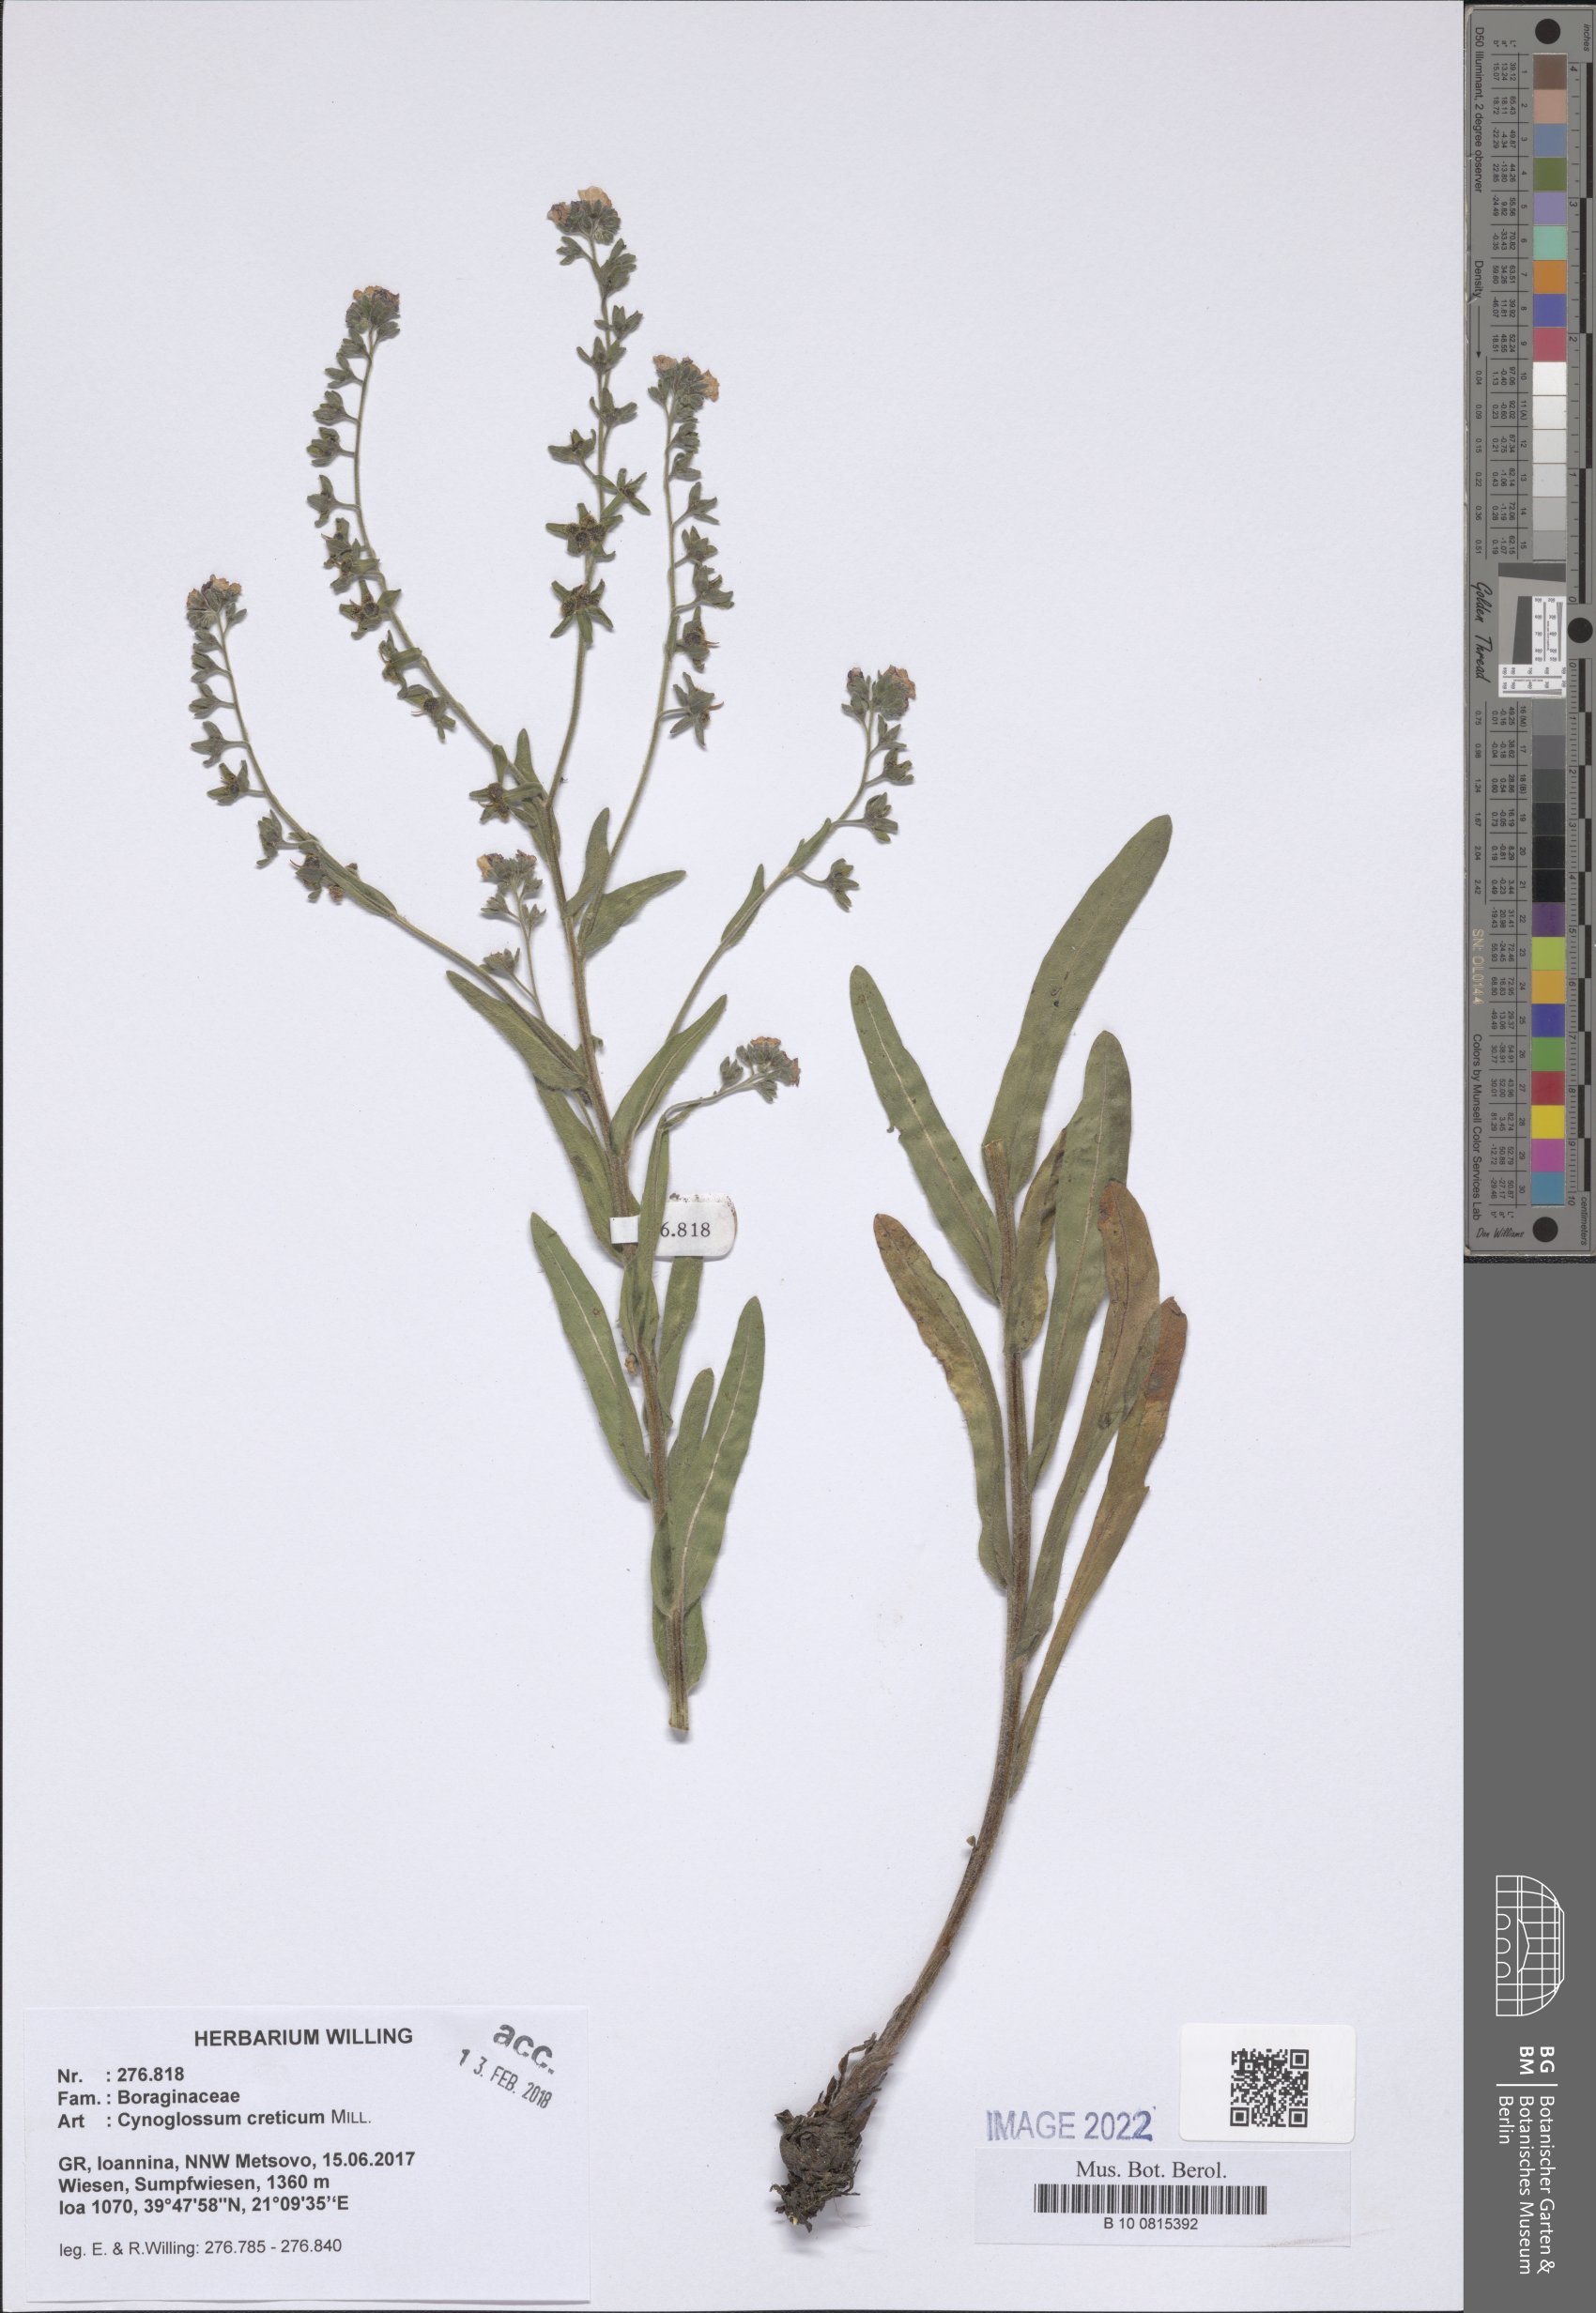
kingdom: Plantae
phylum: Tracheophyta
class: Magnoliopsida
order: Boraginales
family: Boraginaceae
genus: Cynoglossum
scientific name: Cynoglossum creticum
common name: Blue hound's tongue
